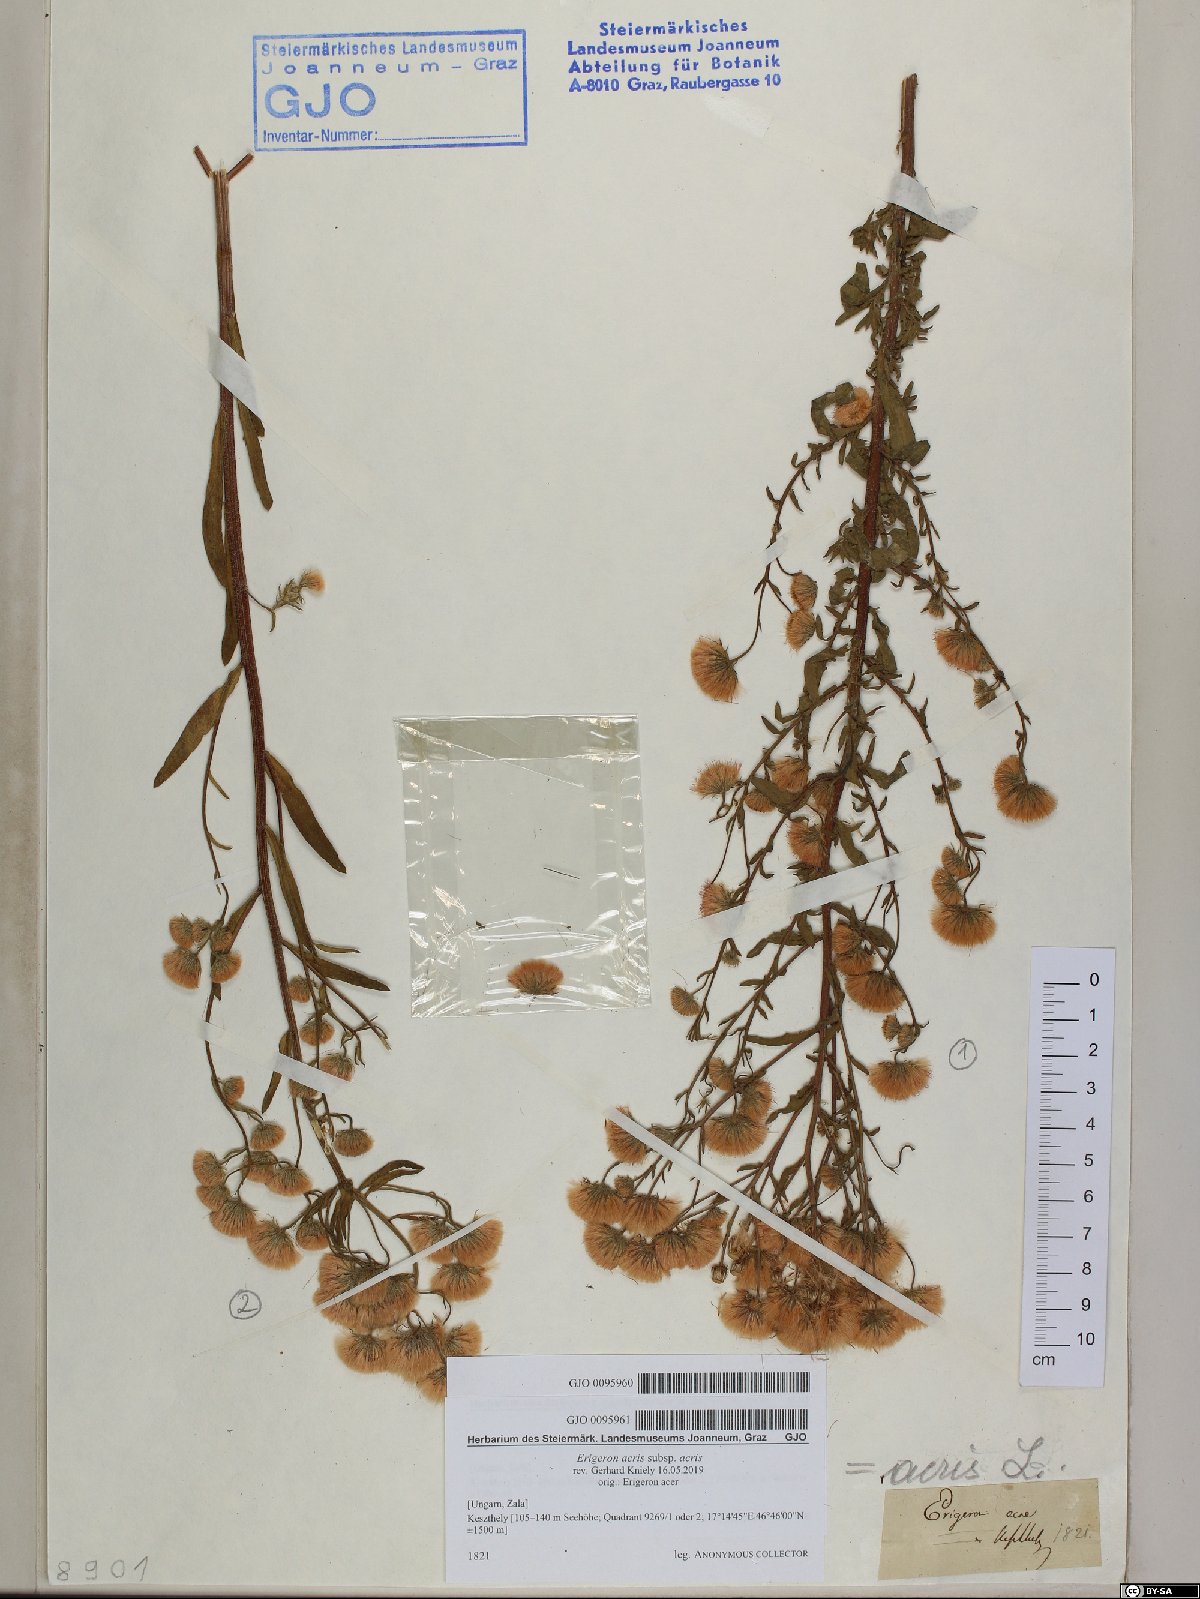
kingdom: Plantae
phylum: Tracheophyta
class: Magnoliopsida
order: Asterales
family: Asteraceae
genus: Erigeron
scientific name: Erigeron muralis
